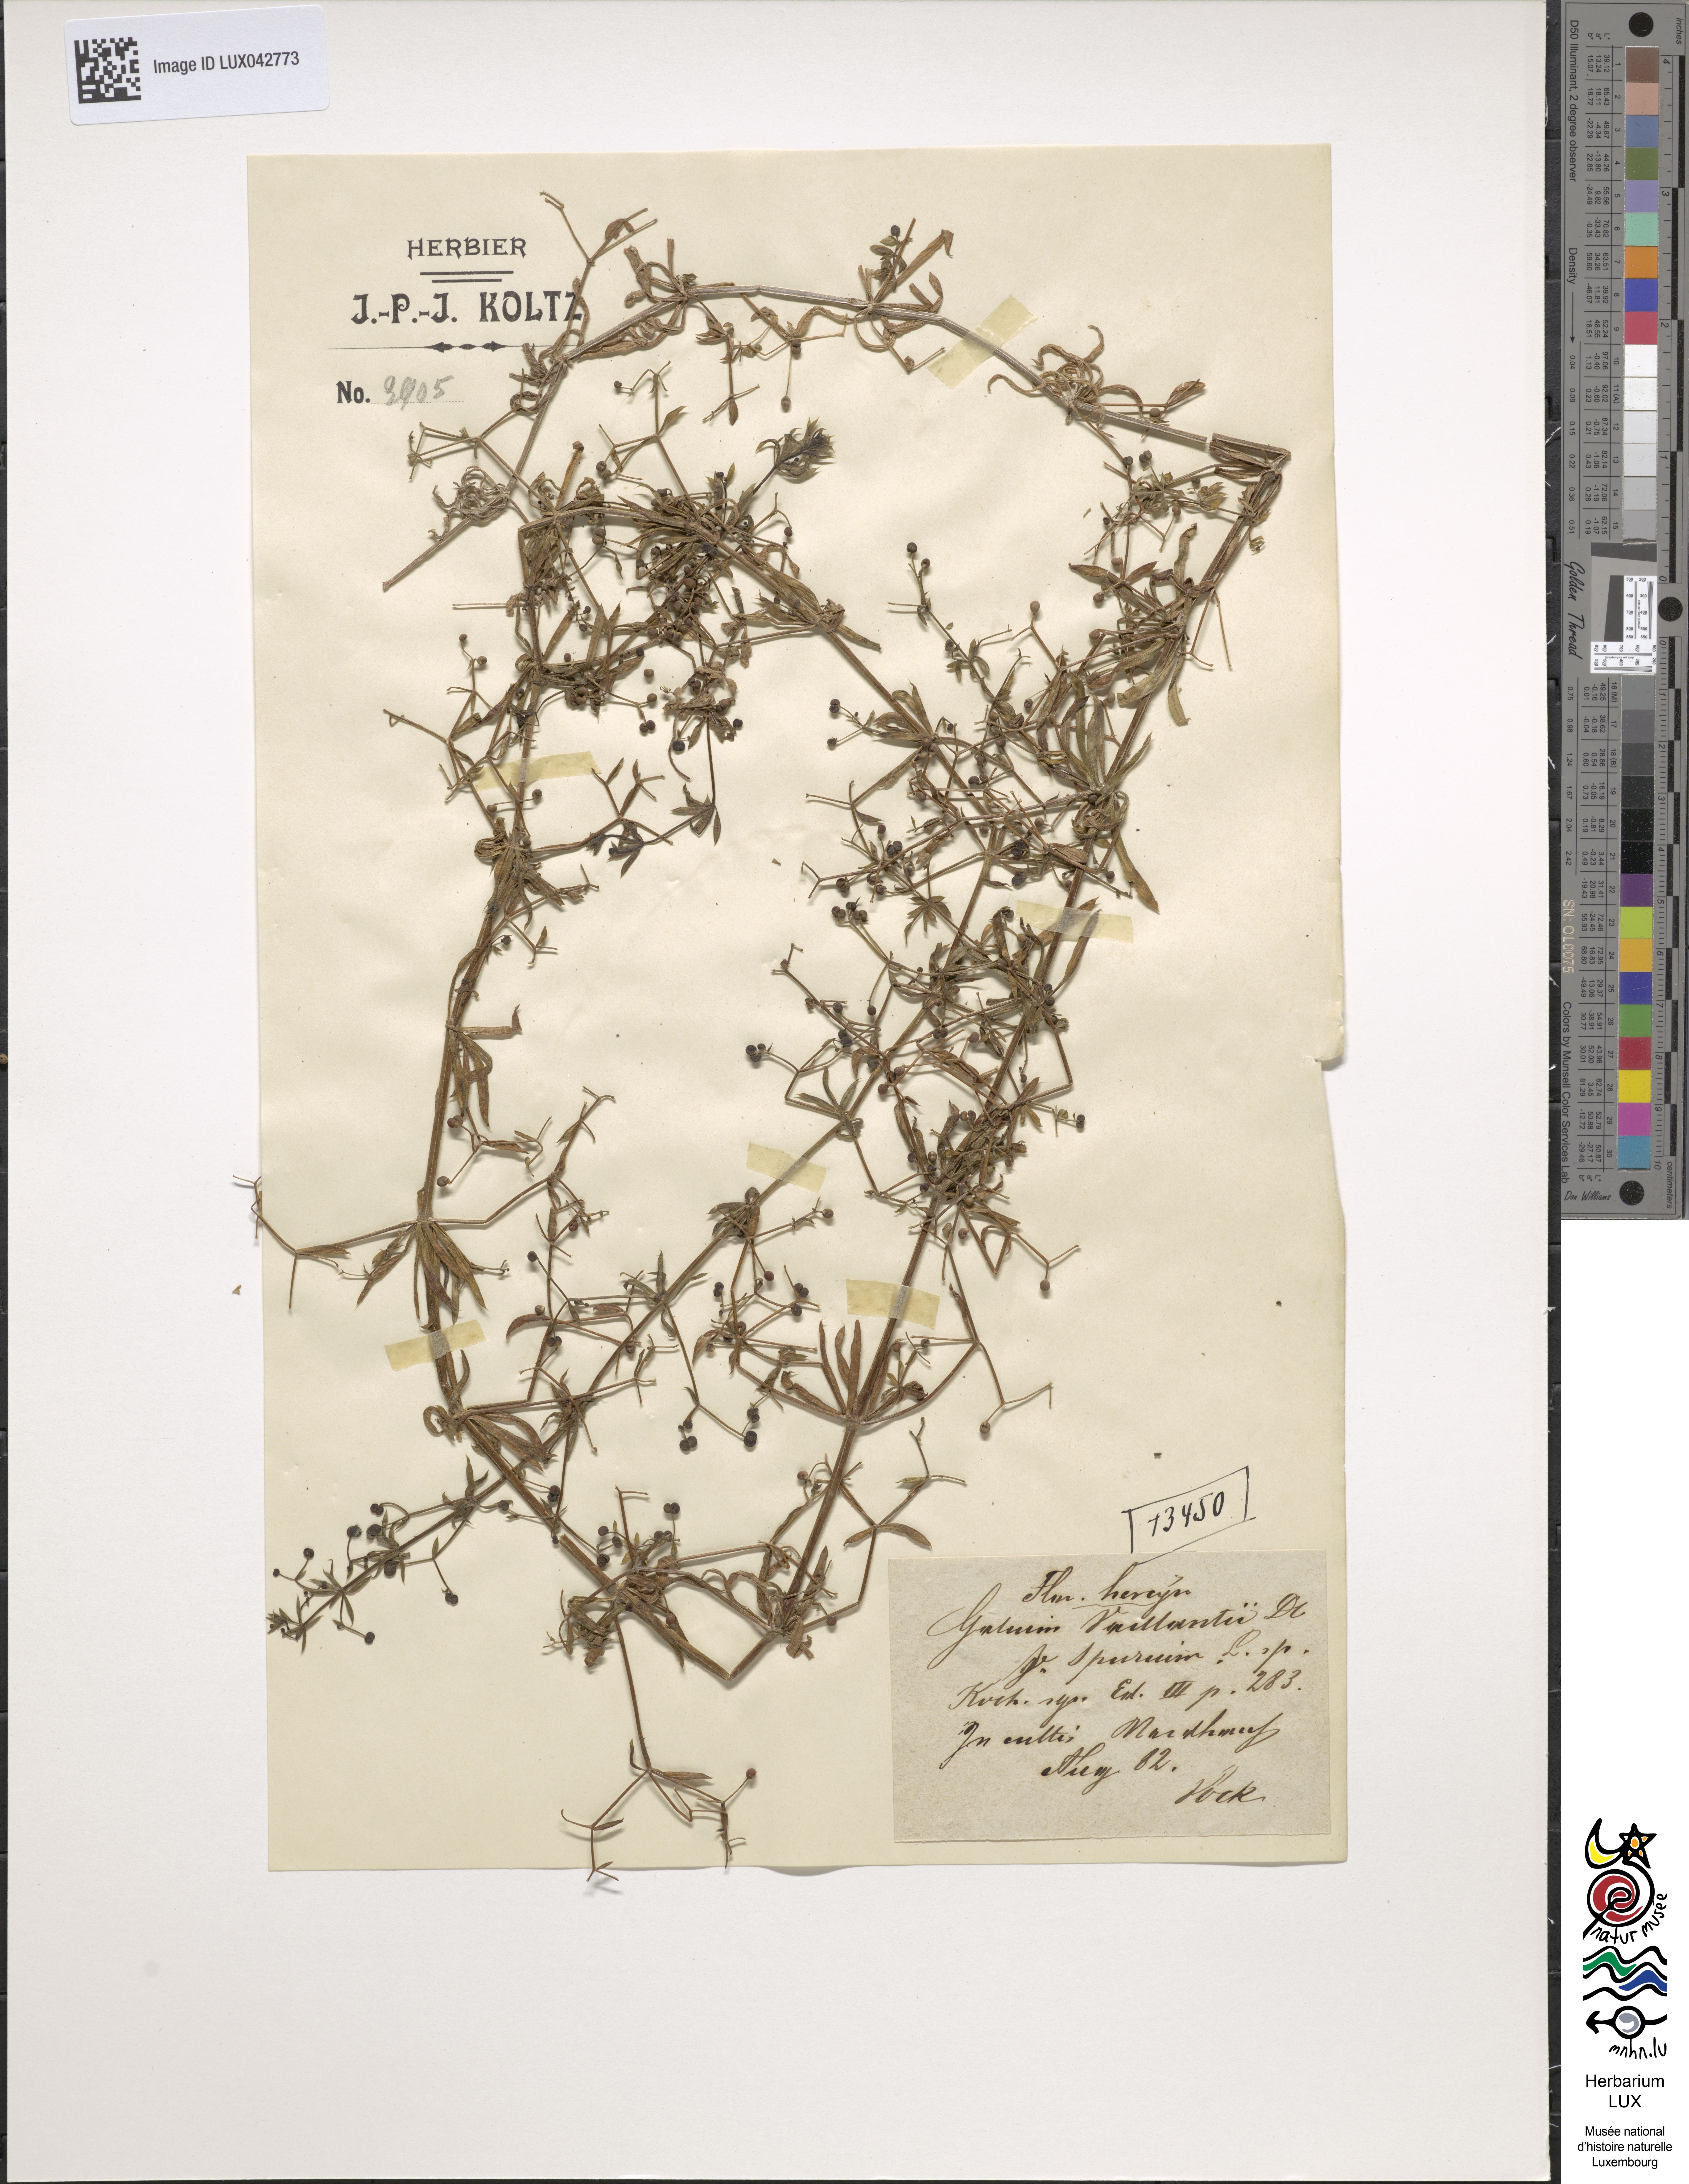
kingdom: Plantae
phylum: Tracheophyta
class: Magnoliopsida
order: Gentianales
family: Rubiaceae
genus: Galium
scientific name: Galium spurium
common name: False cleavers
